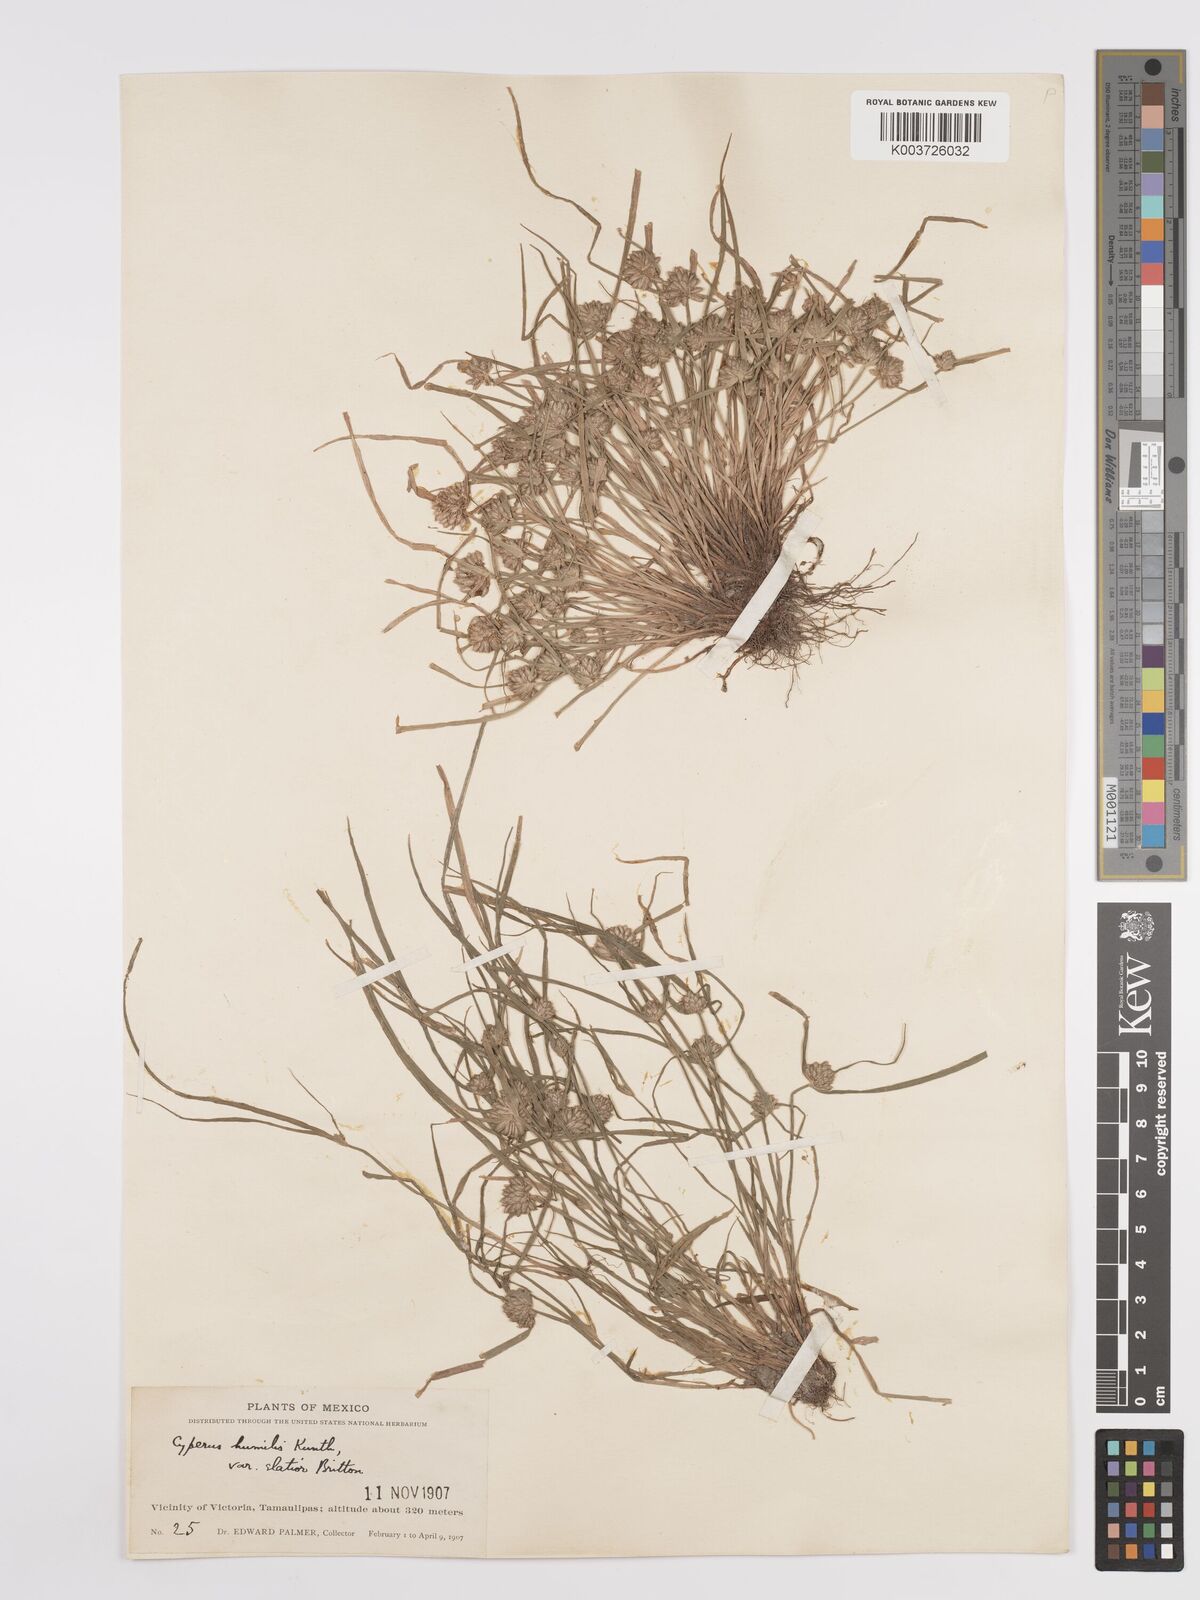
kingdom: Plantae
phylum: Tracheophyta
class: Liliopsida
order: Poales
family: Cyperaceae
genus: Cyperus
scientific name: Cyperus humilis
